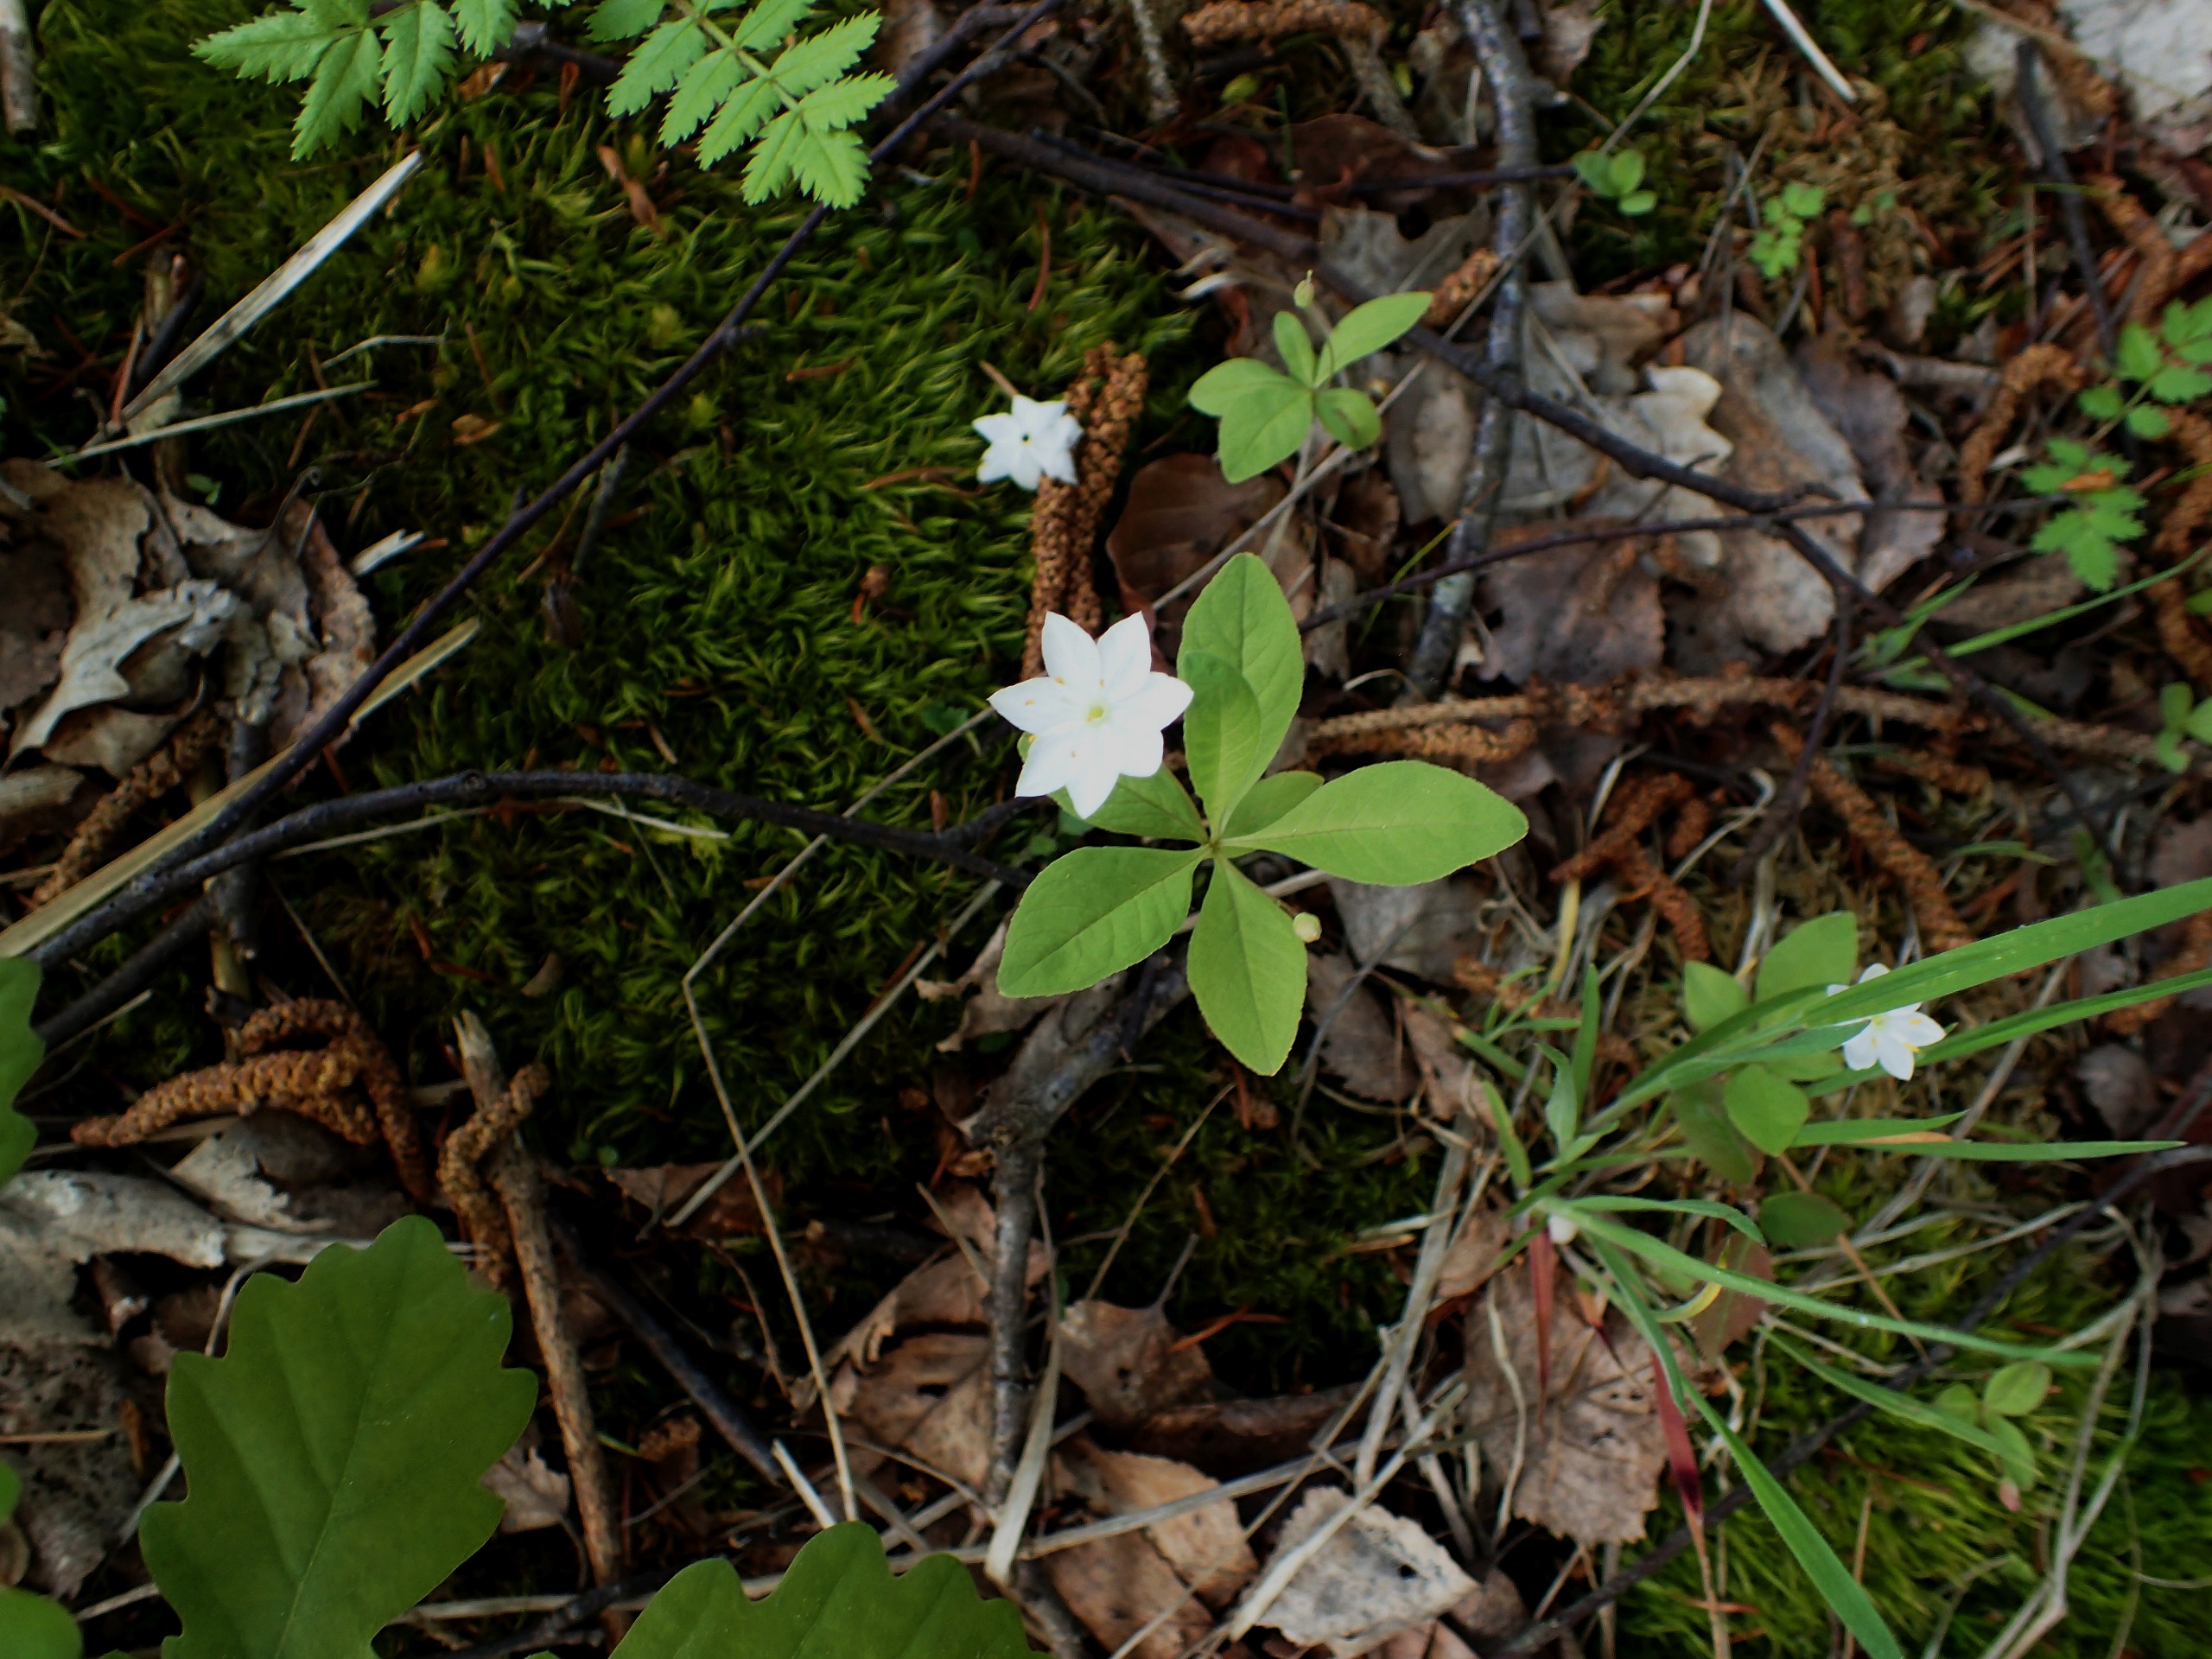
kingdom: Plantae
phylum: Tracheophyta
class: Magnoliopsida
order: Ericales
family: Primulaceae
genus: Lysimachia
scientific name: Lysimachia europaea
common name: Skovstjerne
